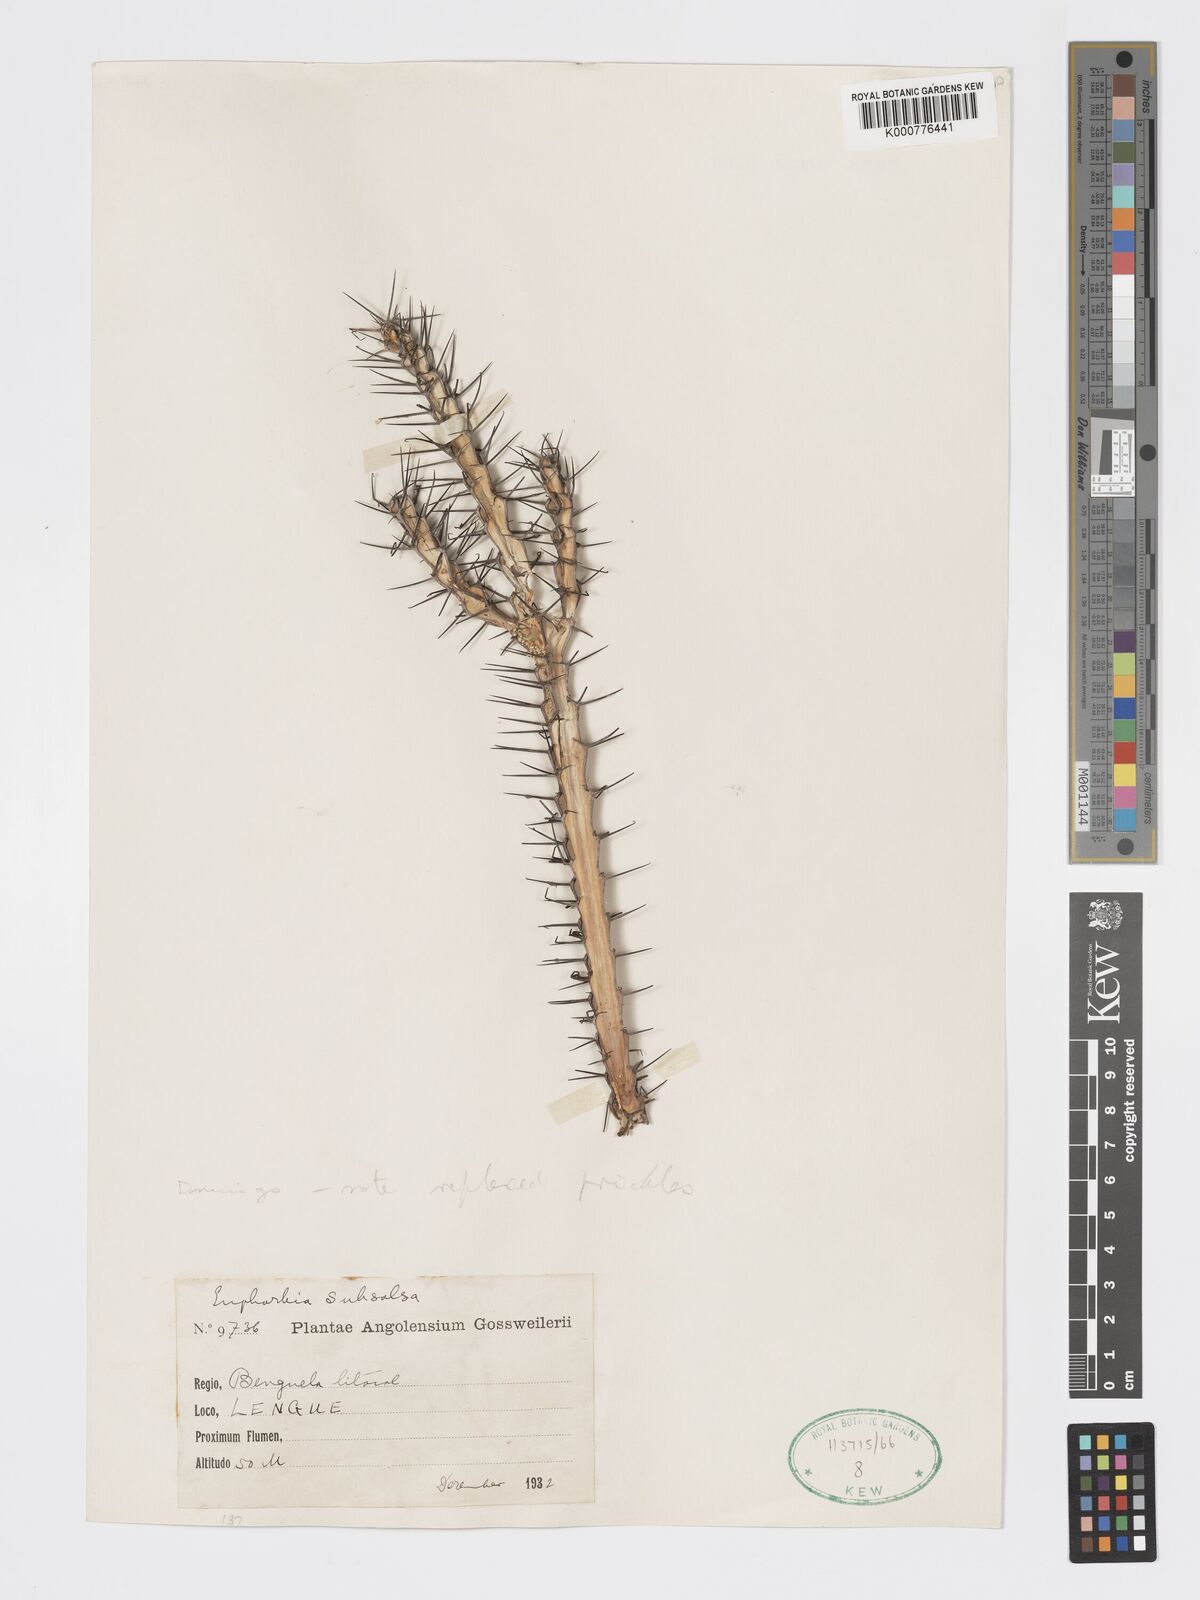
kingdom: Plantae
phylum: Tracheophyta
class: Magnoliopsida
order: Malpighiales
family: Euphorbiaceae
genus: Euphorbia
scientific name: Euphorbia subsalsa
